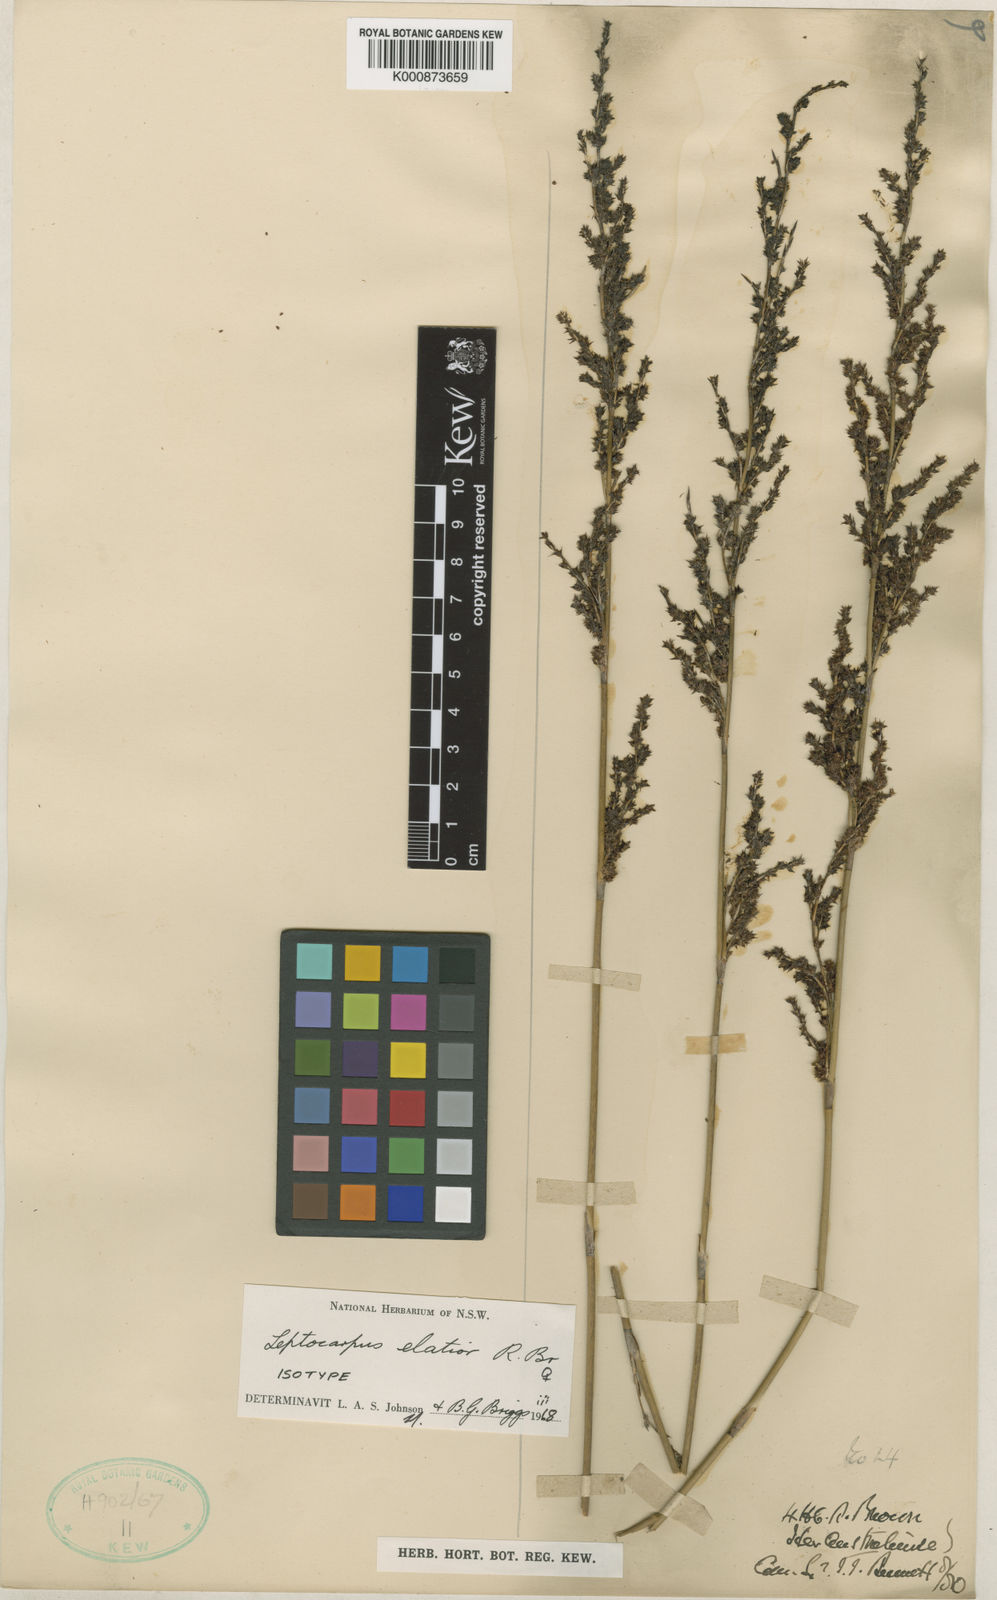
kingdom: Plantae
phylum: Tracheophyta
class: Liliopsida
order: Poales
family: Restionaceae
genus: Dapsilanthus
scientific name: Dapsilanthus elatior
